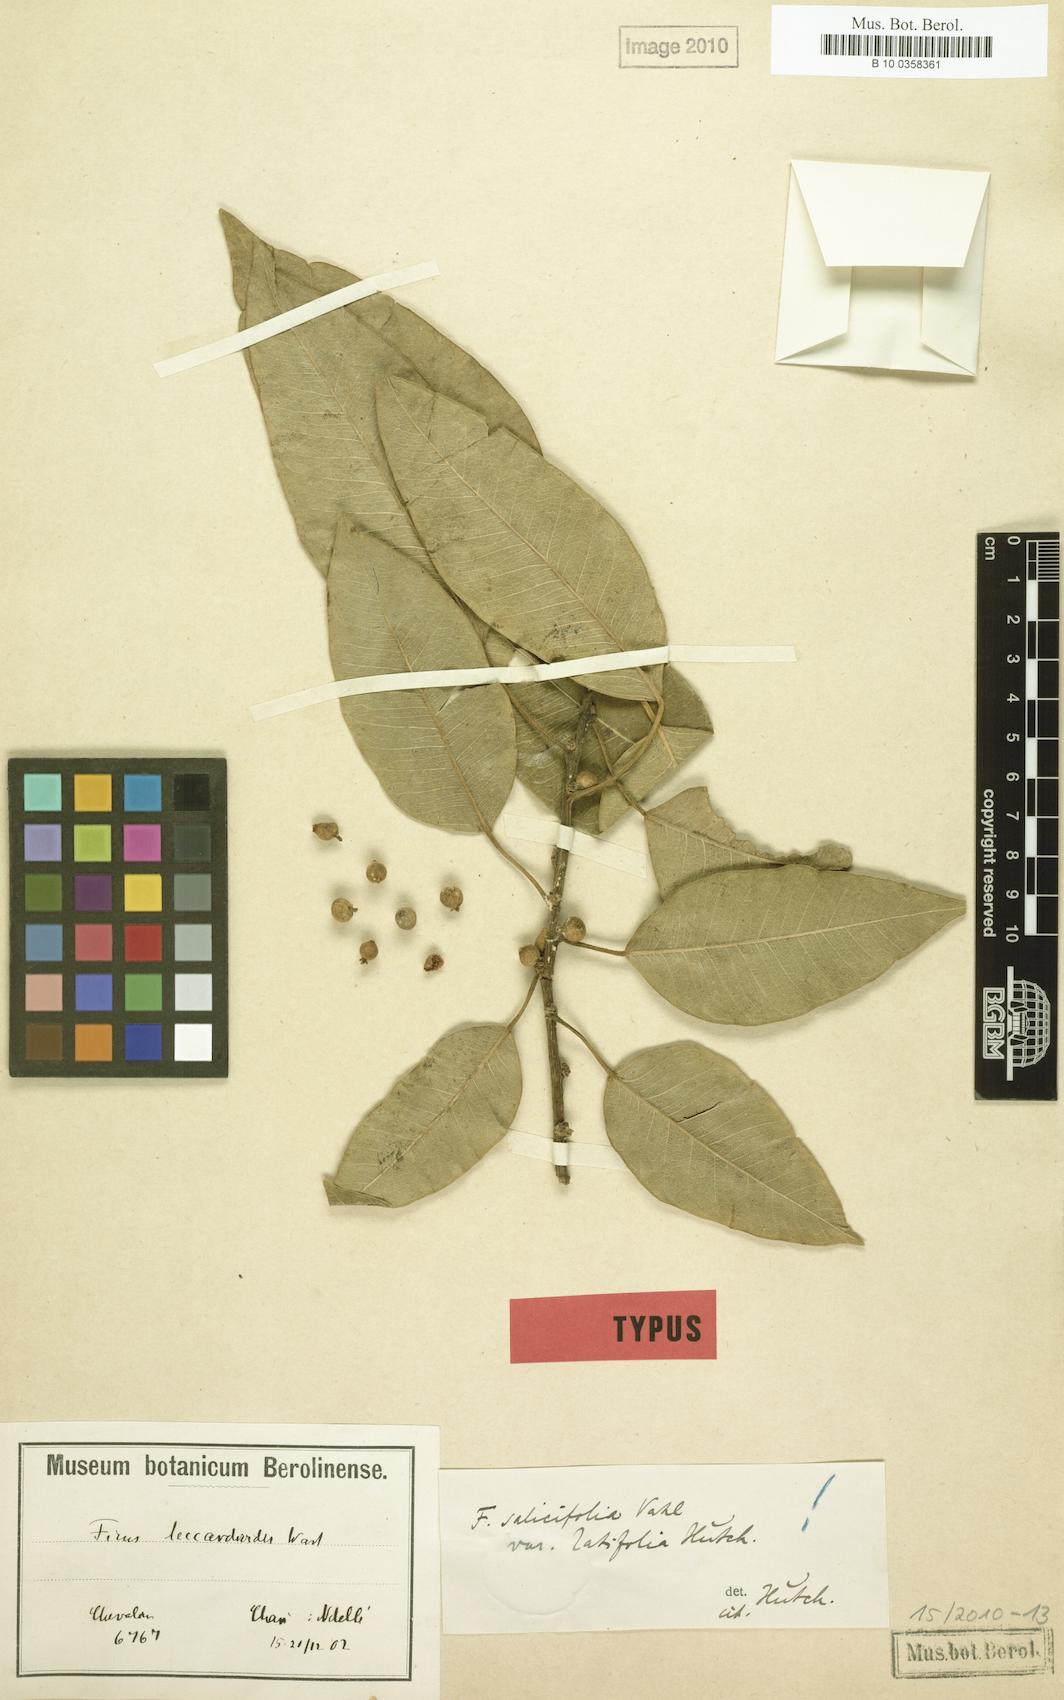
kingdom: Plantae
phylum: Tracheophyta
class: Magnoliopsida
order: Rosales
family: Moraceae
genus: Ficus
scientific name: Ficus cordata
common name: Namaqua rock fig
